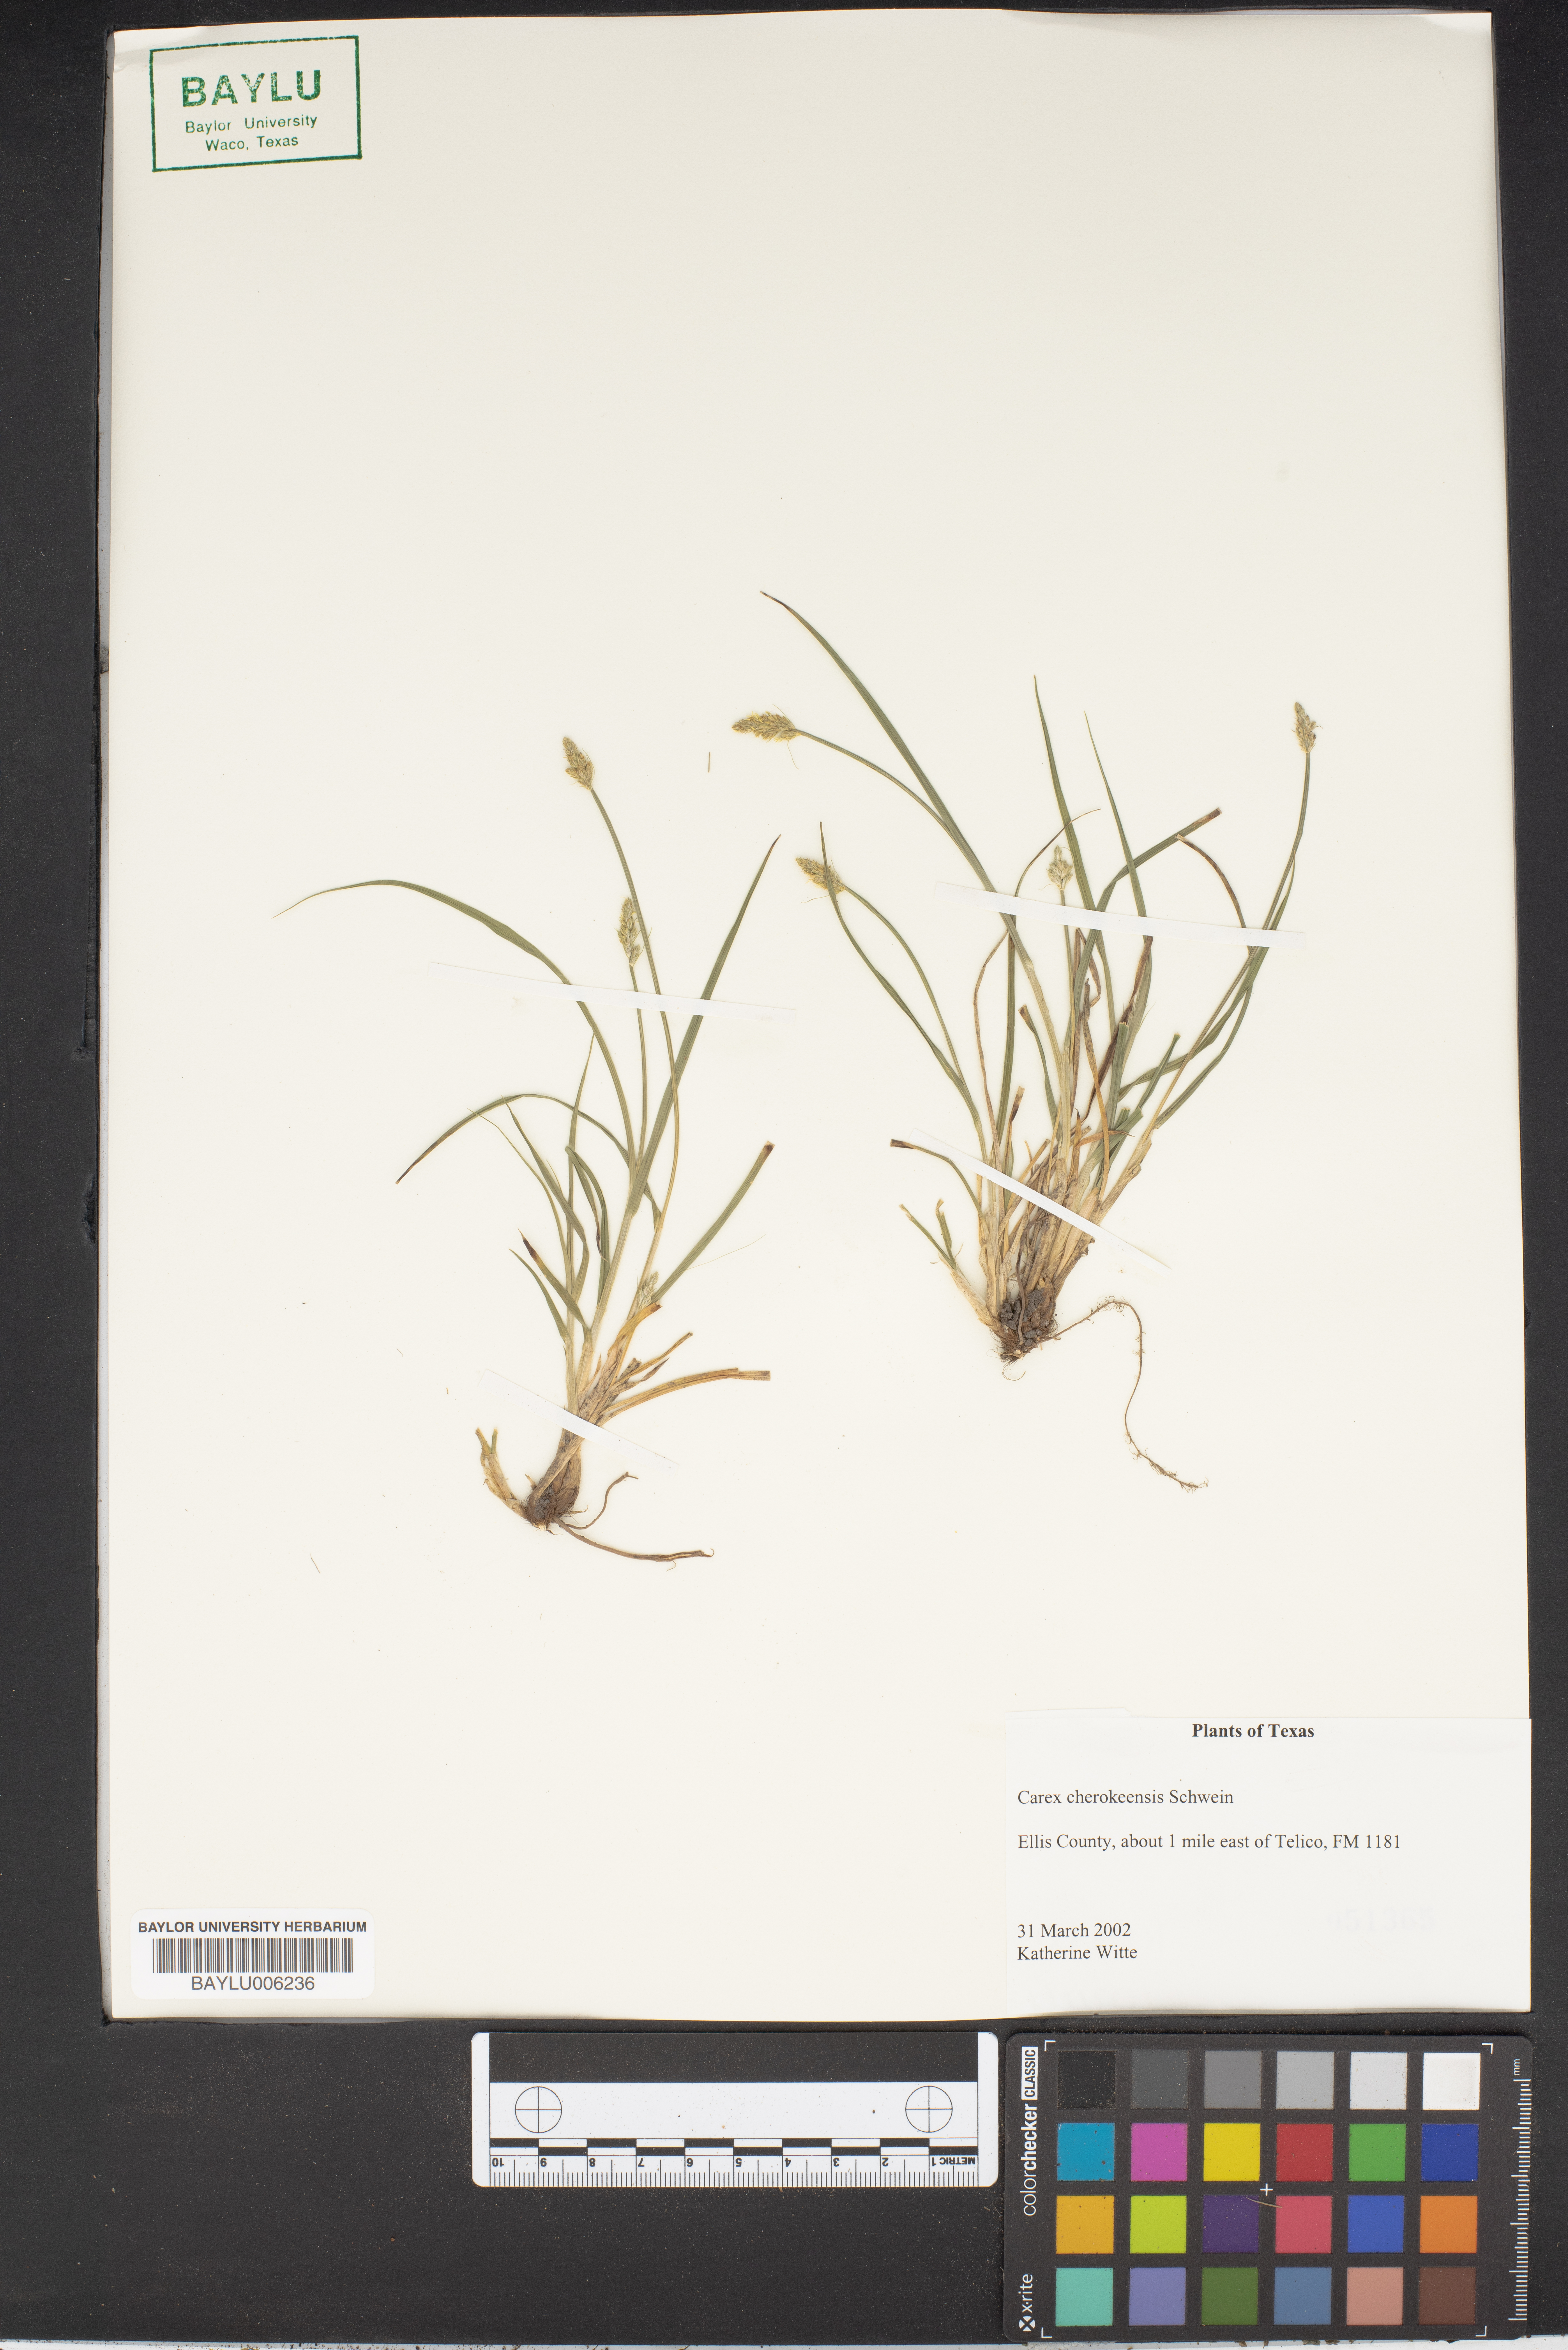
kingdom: Plantae
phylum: Tracheophyta
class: Liliopsida
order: Poales
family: Cyperaceae
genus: Carex
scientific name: Carex cherokeensis
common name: Cherokee sedge
